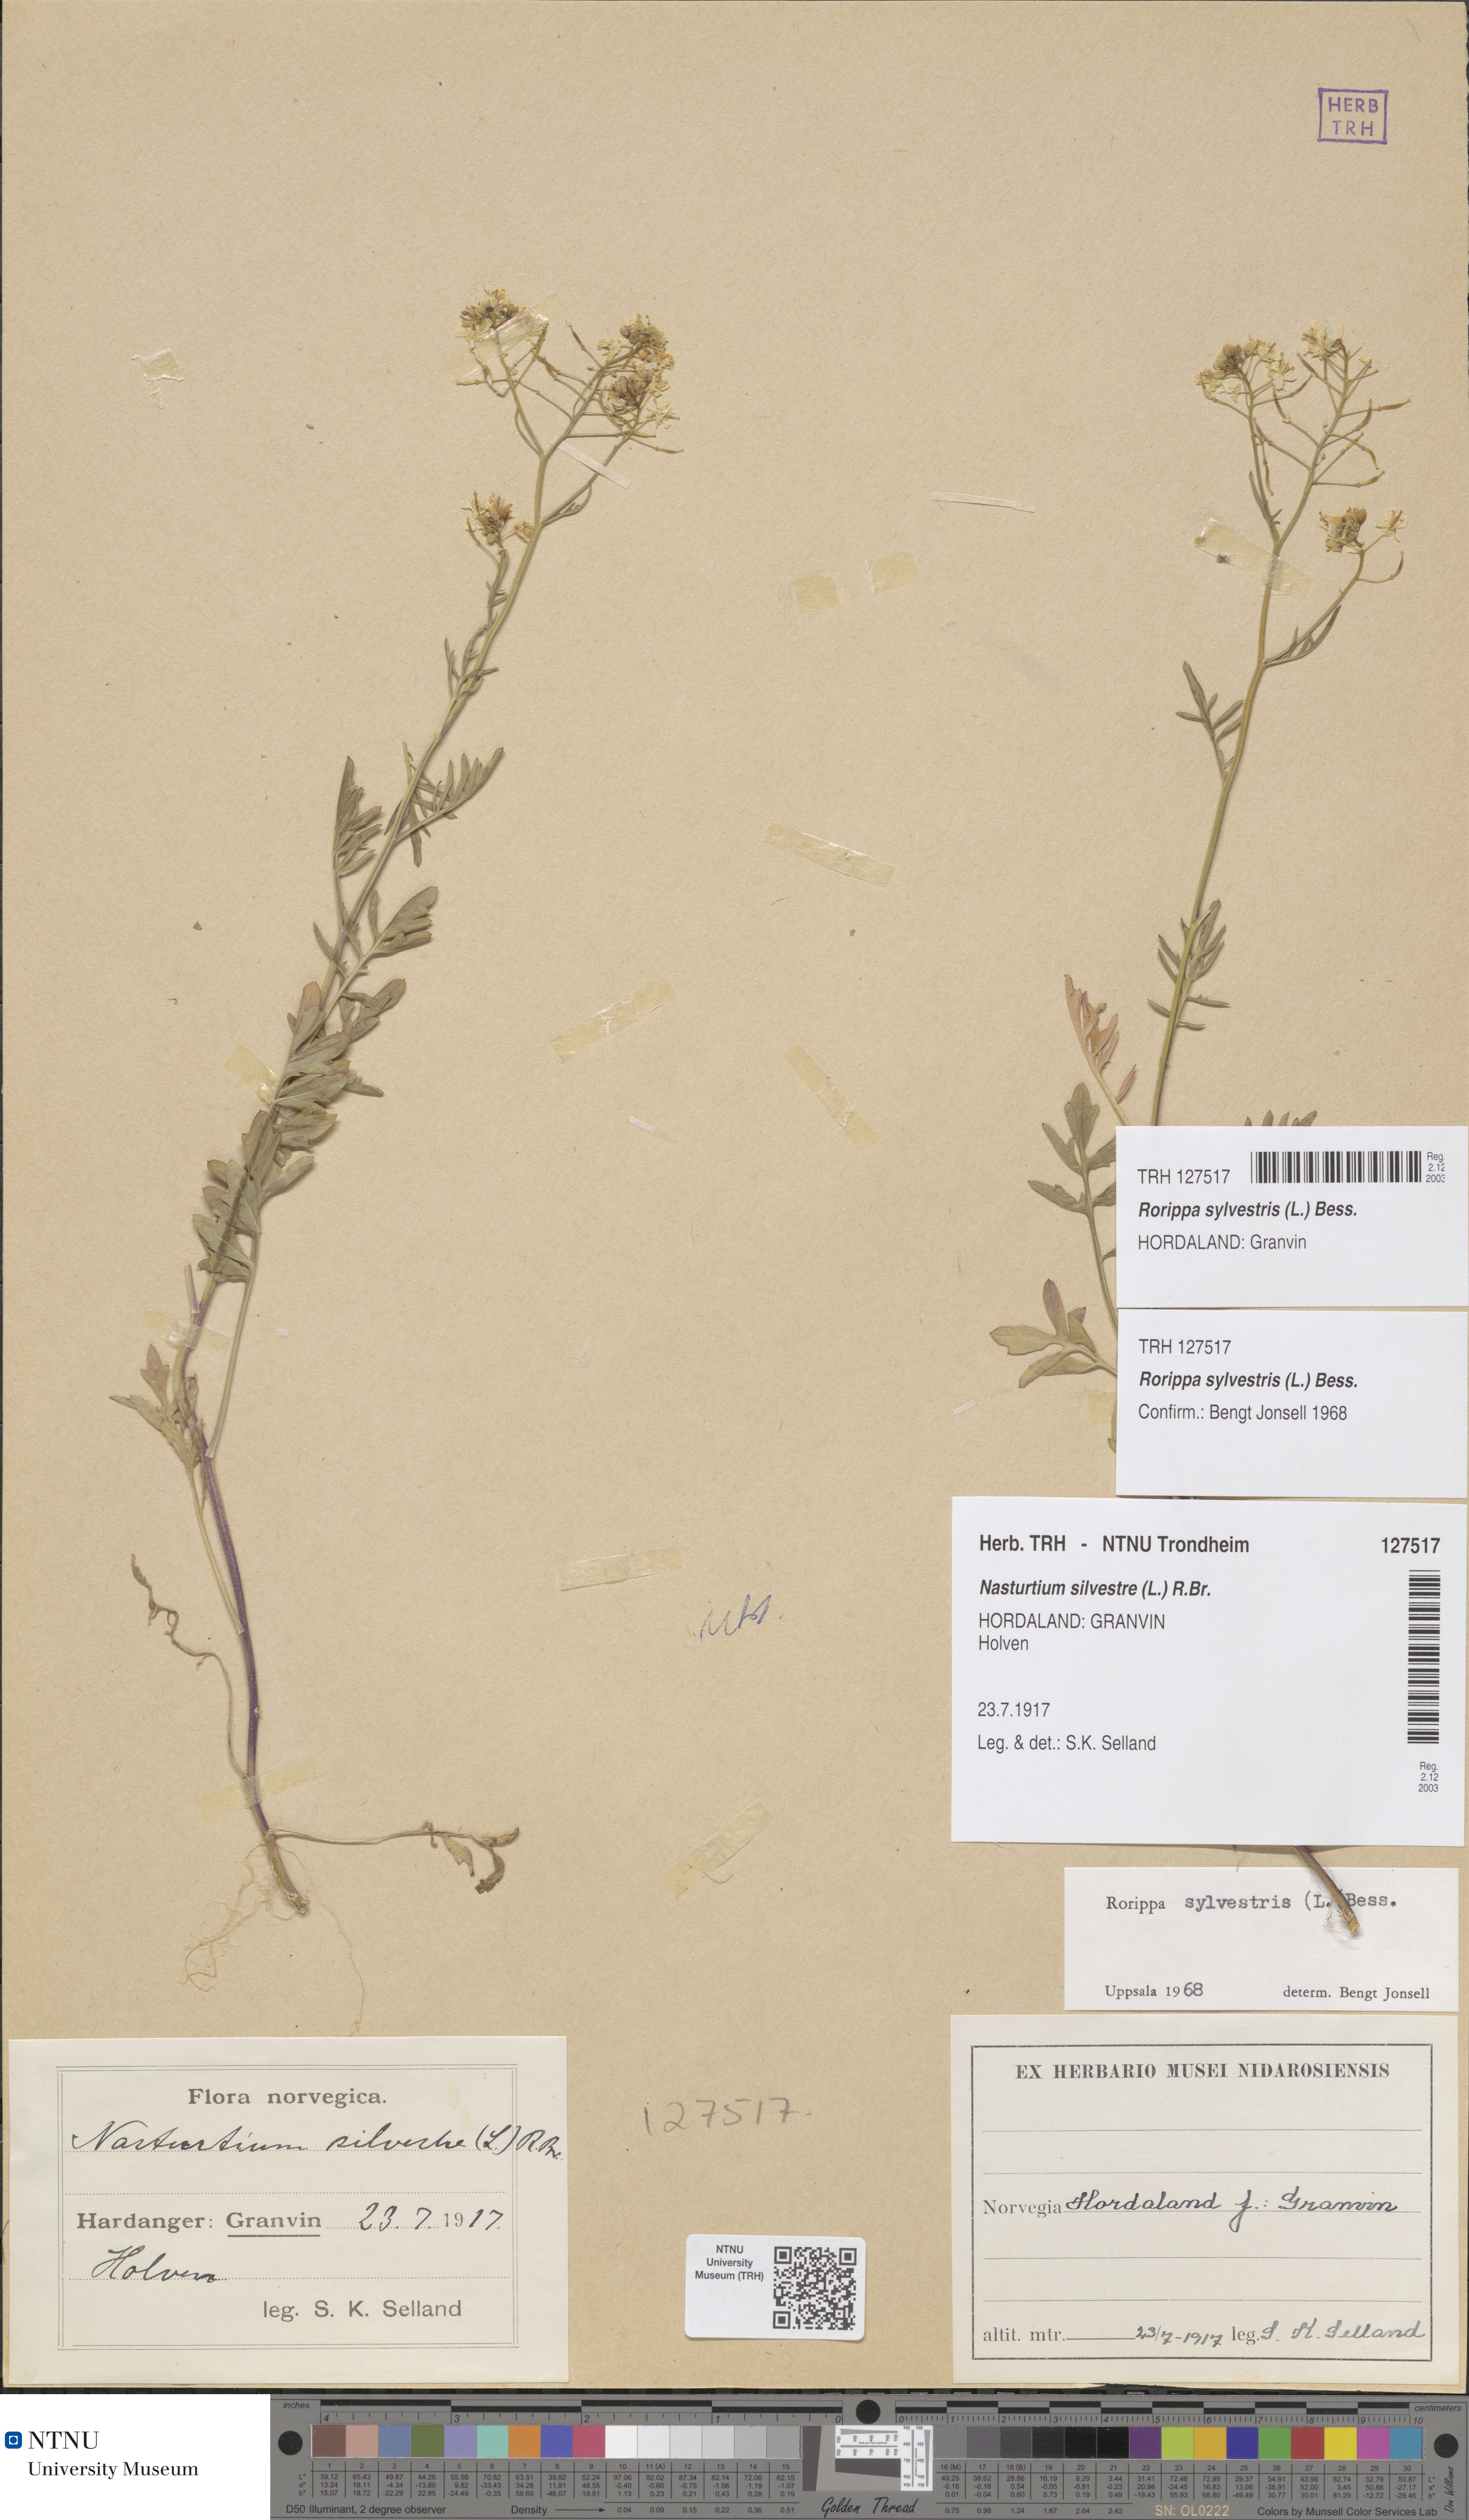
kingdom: Plantae
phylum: Tracheophyta
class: Magnoliopsida
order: Brassicales
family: Brassicaceae
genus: Rorippa
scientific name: Rorippa sylvestris
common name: Creeping yellowcress
